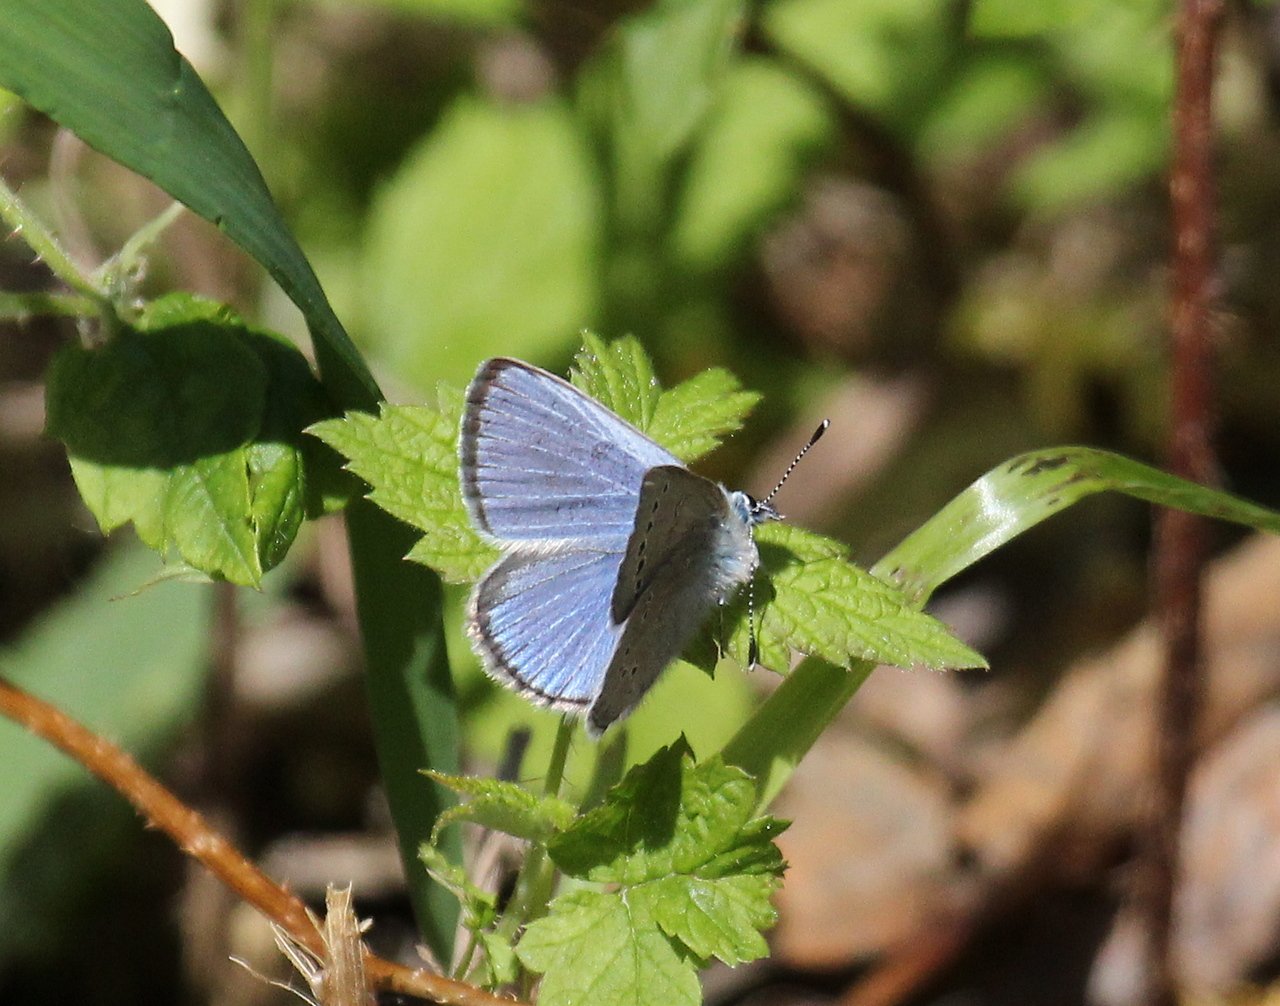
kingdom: Animalia
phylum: Arthropoda
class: Insecta
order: Lepidoptera
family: Lycaenidae
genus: Glaucopsyche
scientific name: Glaucopsyche lygdamus
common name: Silvery Blue
